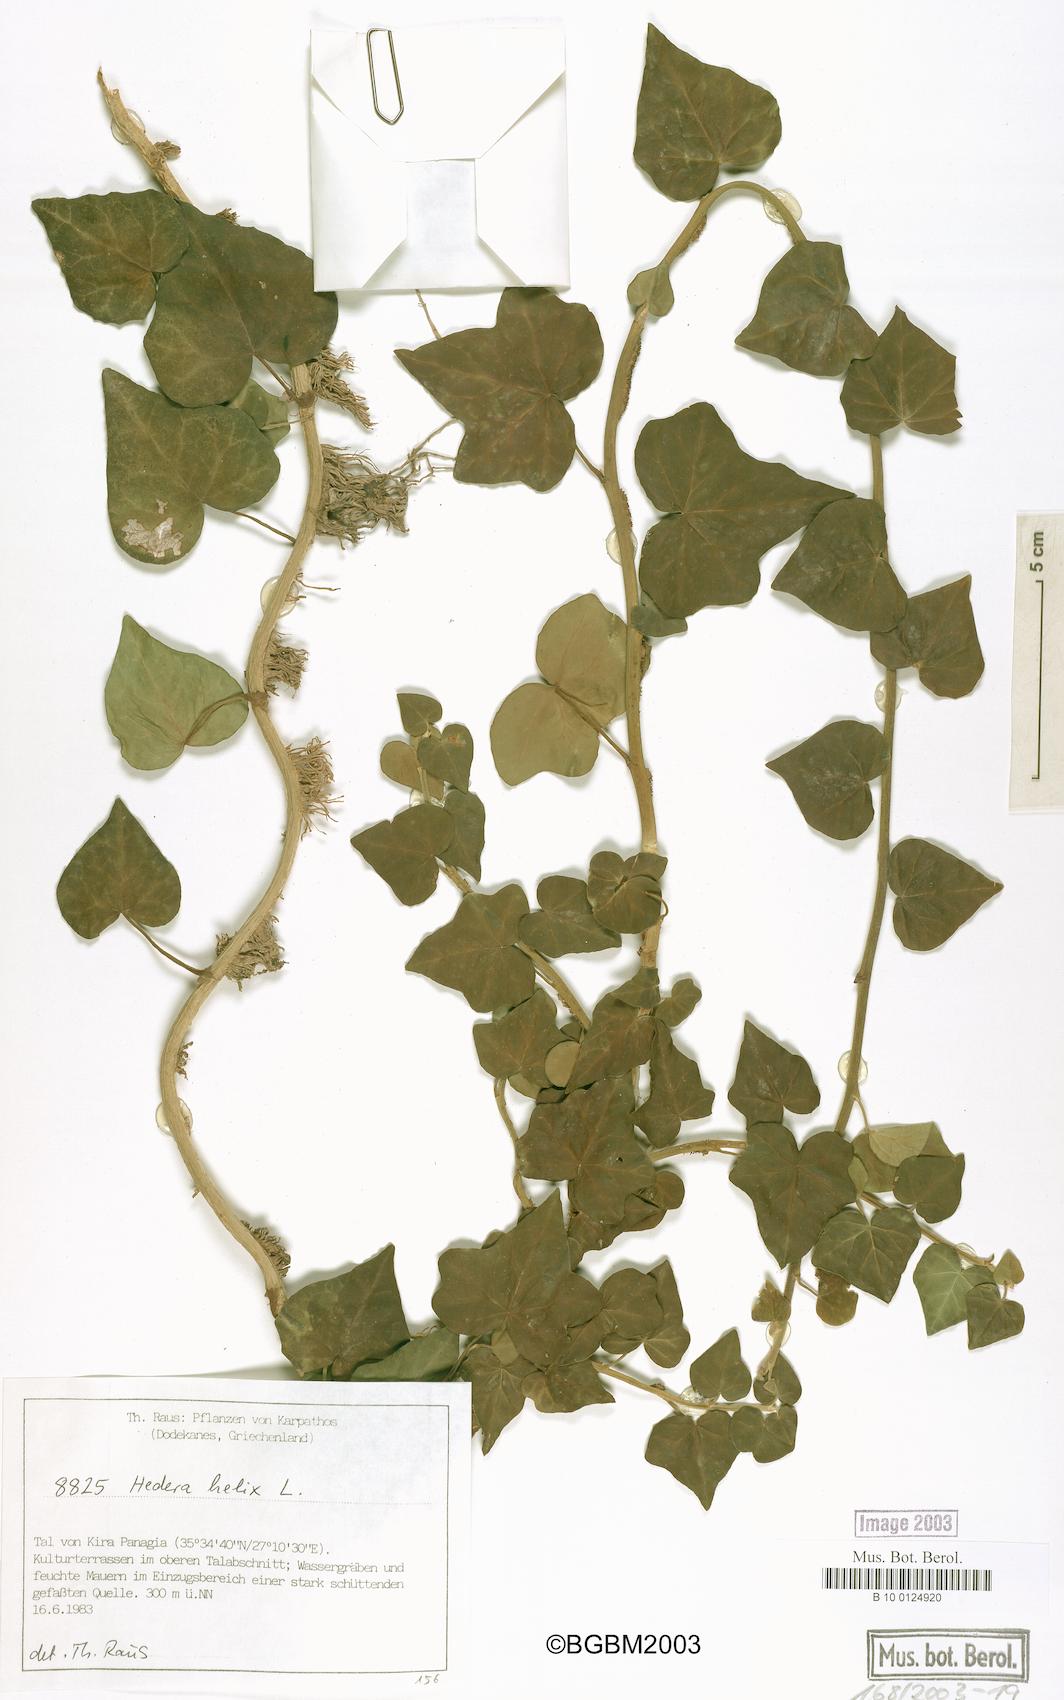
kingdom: Plantae
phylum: Tracheophyta
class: Magnoliopsida
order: Apiales
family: Araliaceae
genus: Hedera
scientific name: Hedera helix
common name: Ivy
